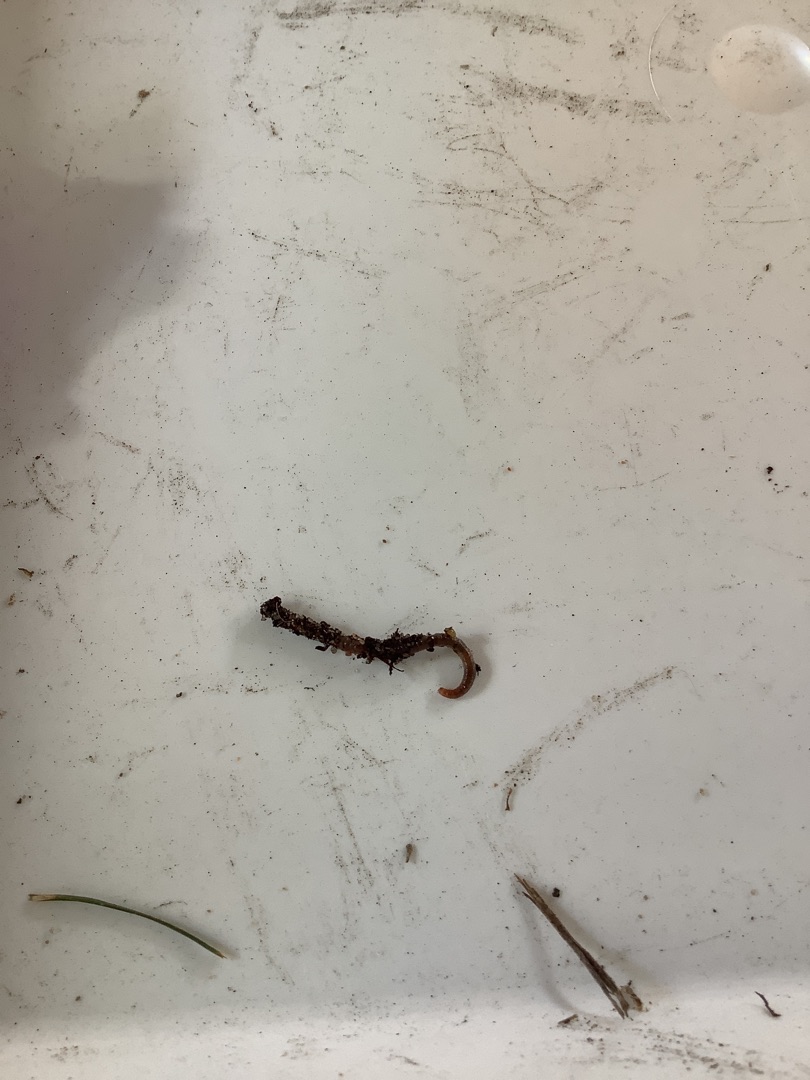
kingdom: Animalia
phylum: Annelida
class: Clitellata
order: Crassiclitellata
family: Lumbricidae
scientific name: Lumbricidae
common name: Regnorme
